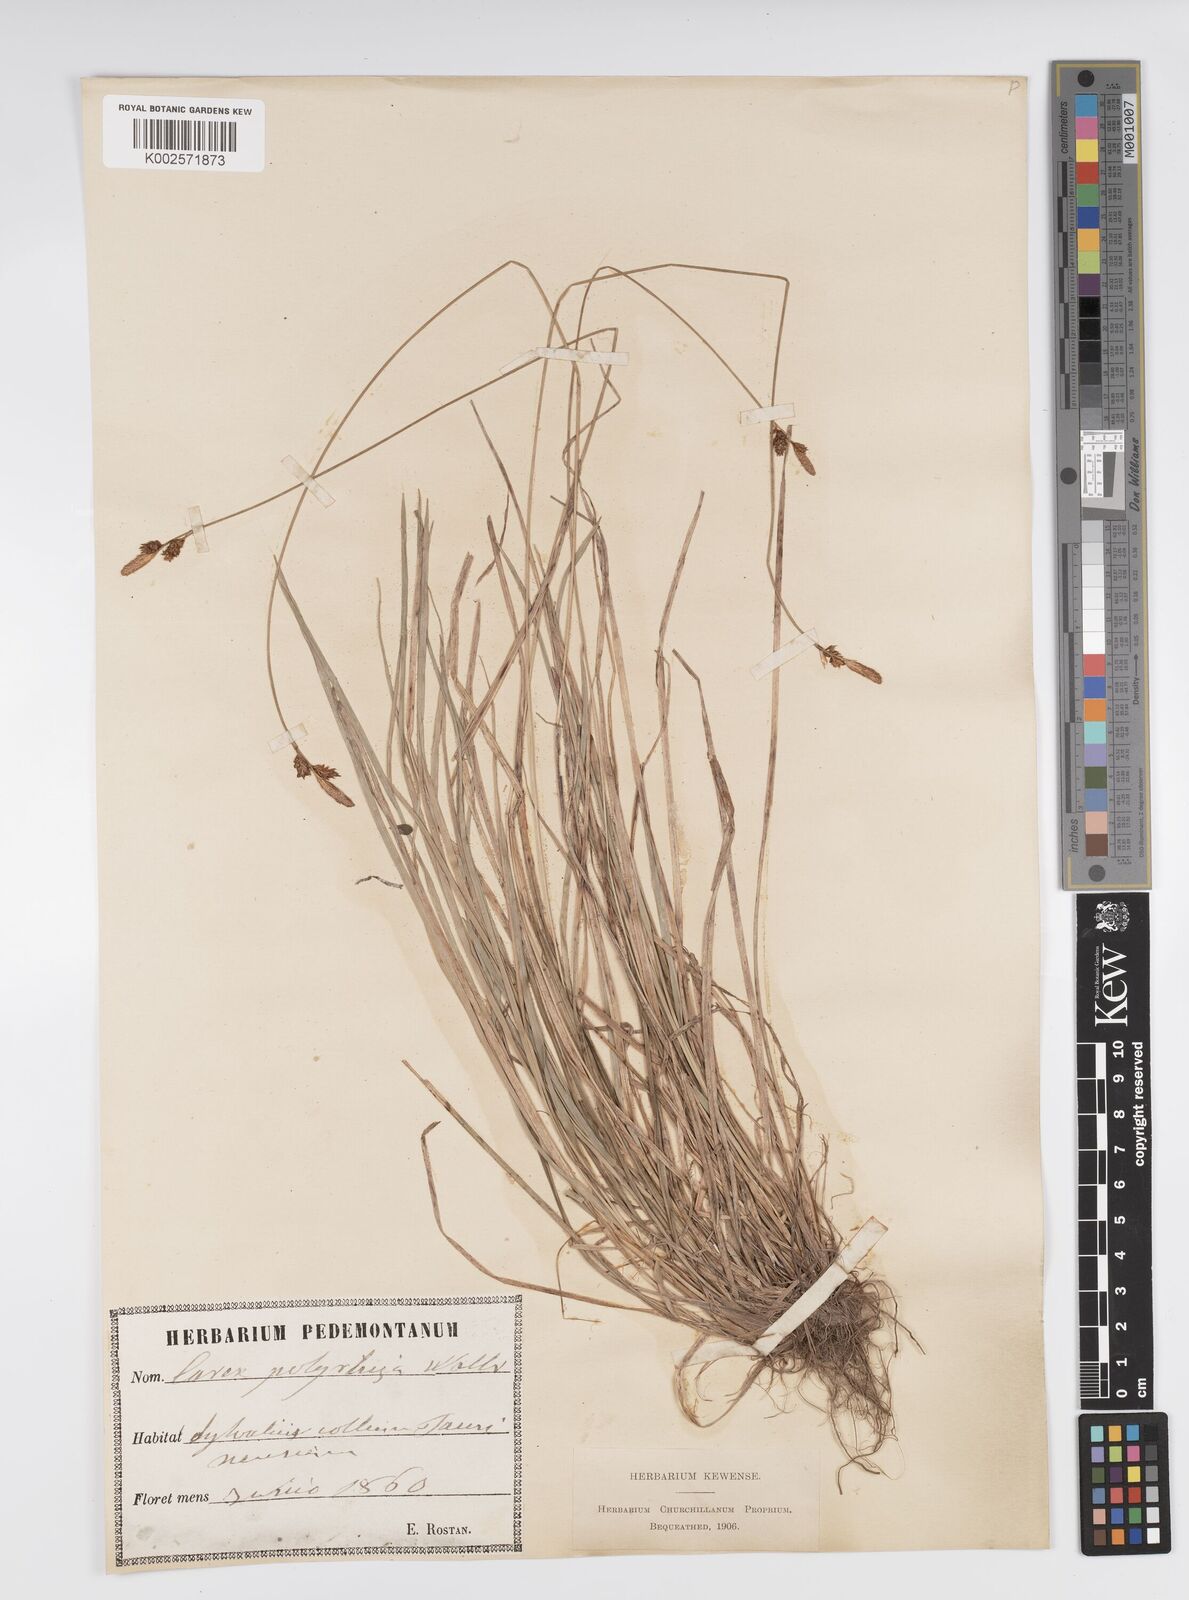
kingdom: Plantae
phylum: Tracheophyta
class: Liliopsida
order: Poales
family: Cyperaceae
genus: Carex
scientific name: Carex umbrosa
